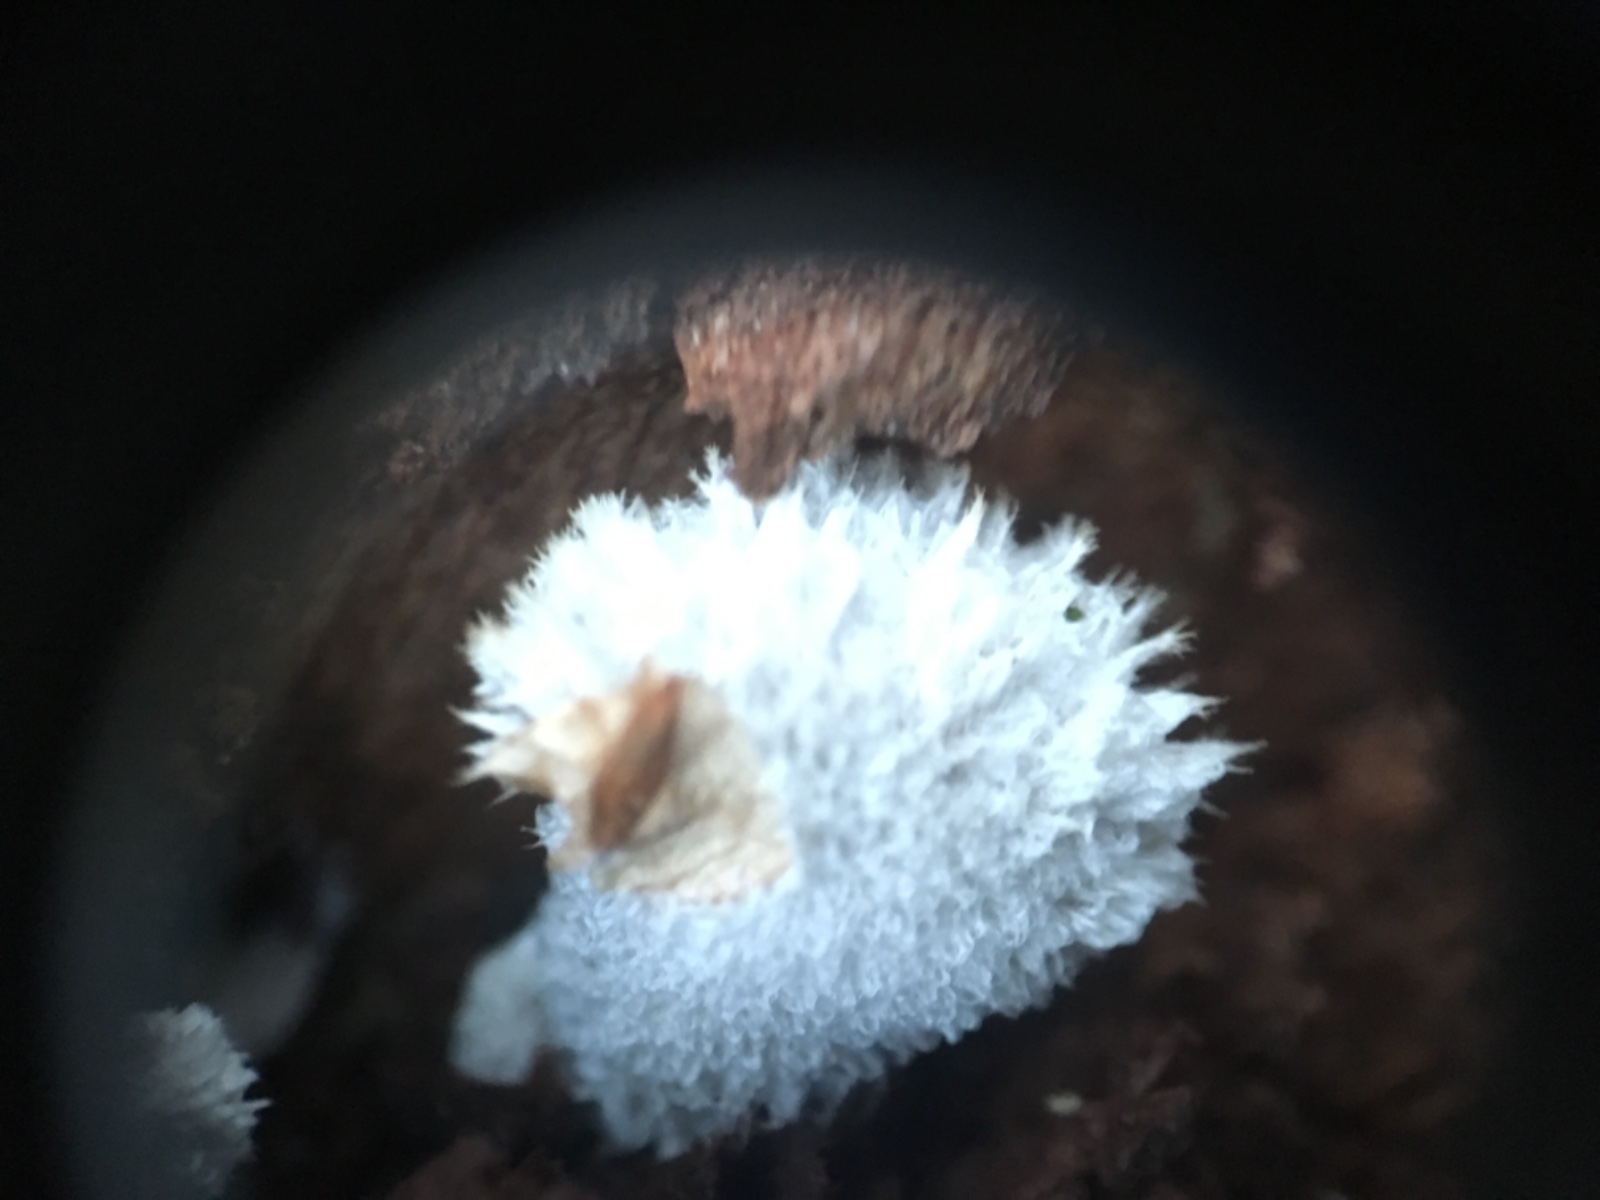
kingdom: Fungi
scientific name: Fungi
